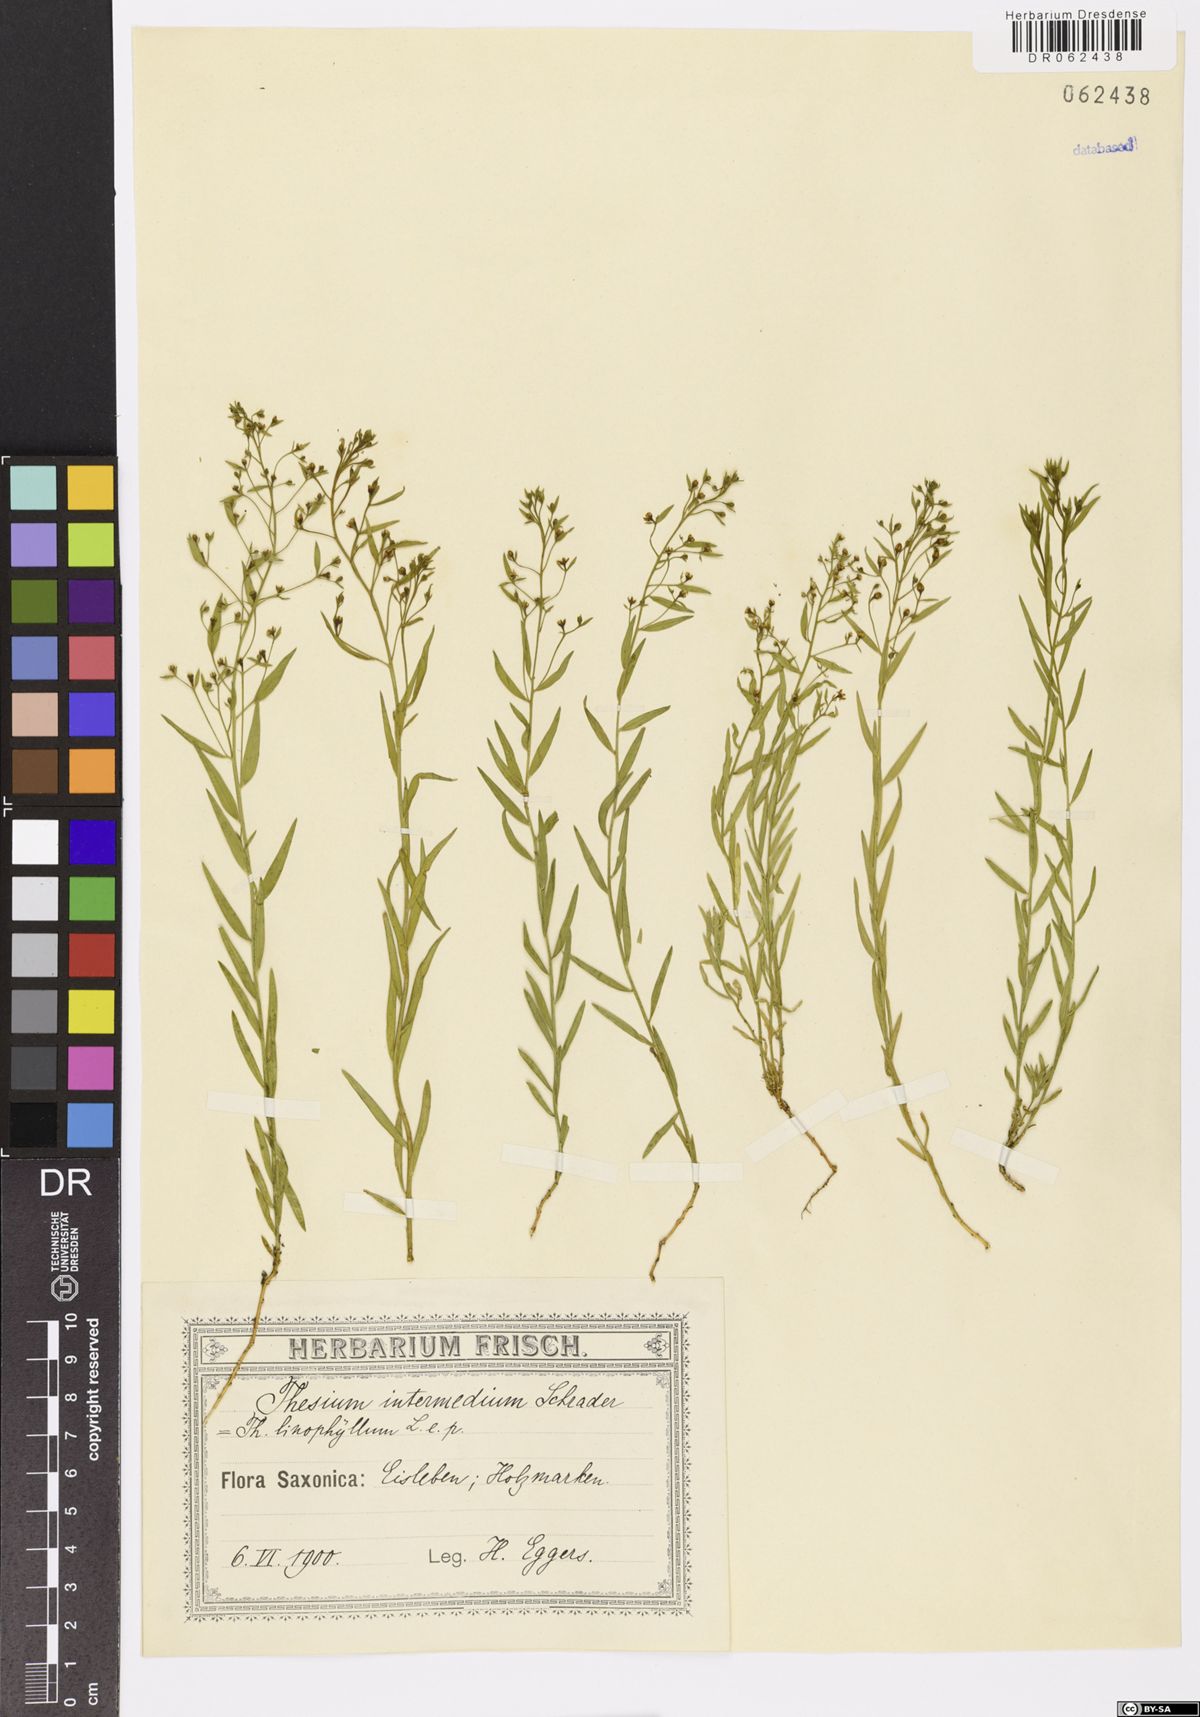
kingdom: Plantae
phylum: Tracheophyta
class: Magnoliopsida
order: Santalales
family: Thesiaceae
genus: Thesium
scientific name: Thesium linophyllon
